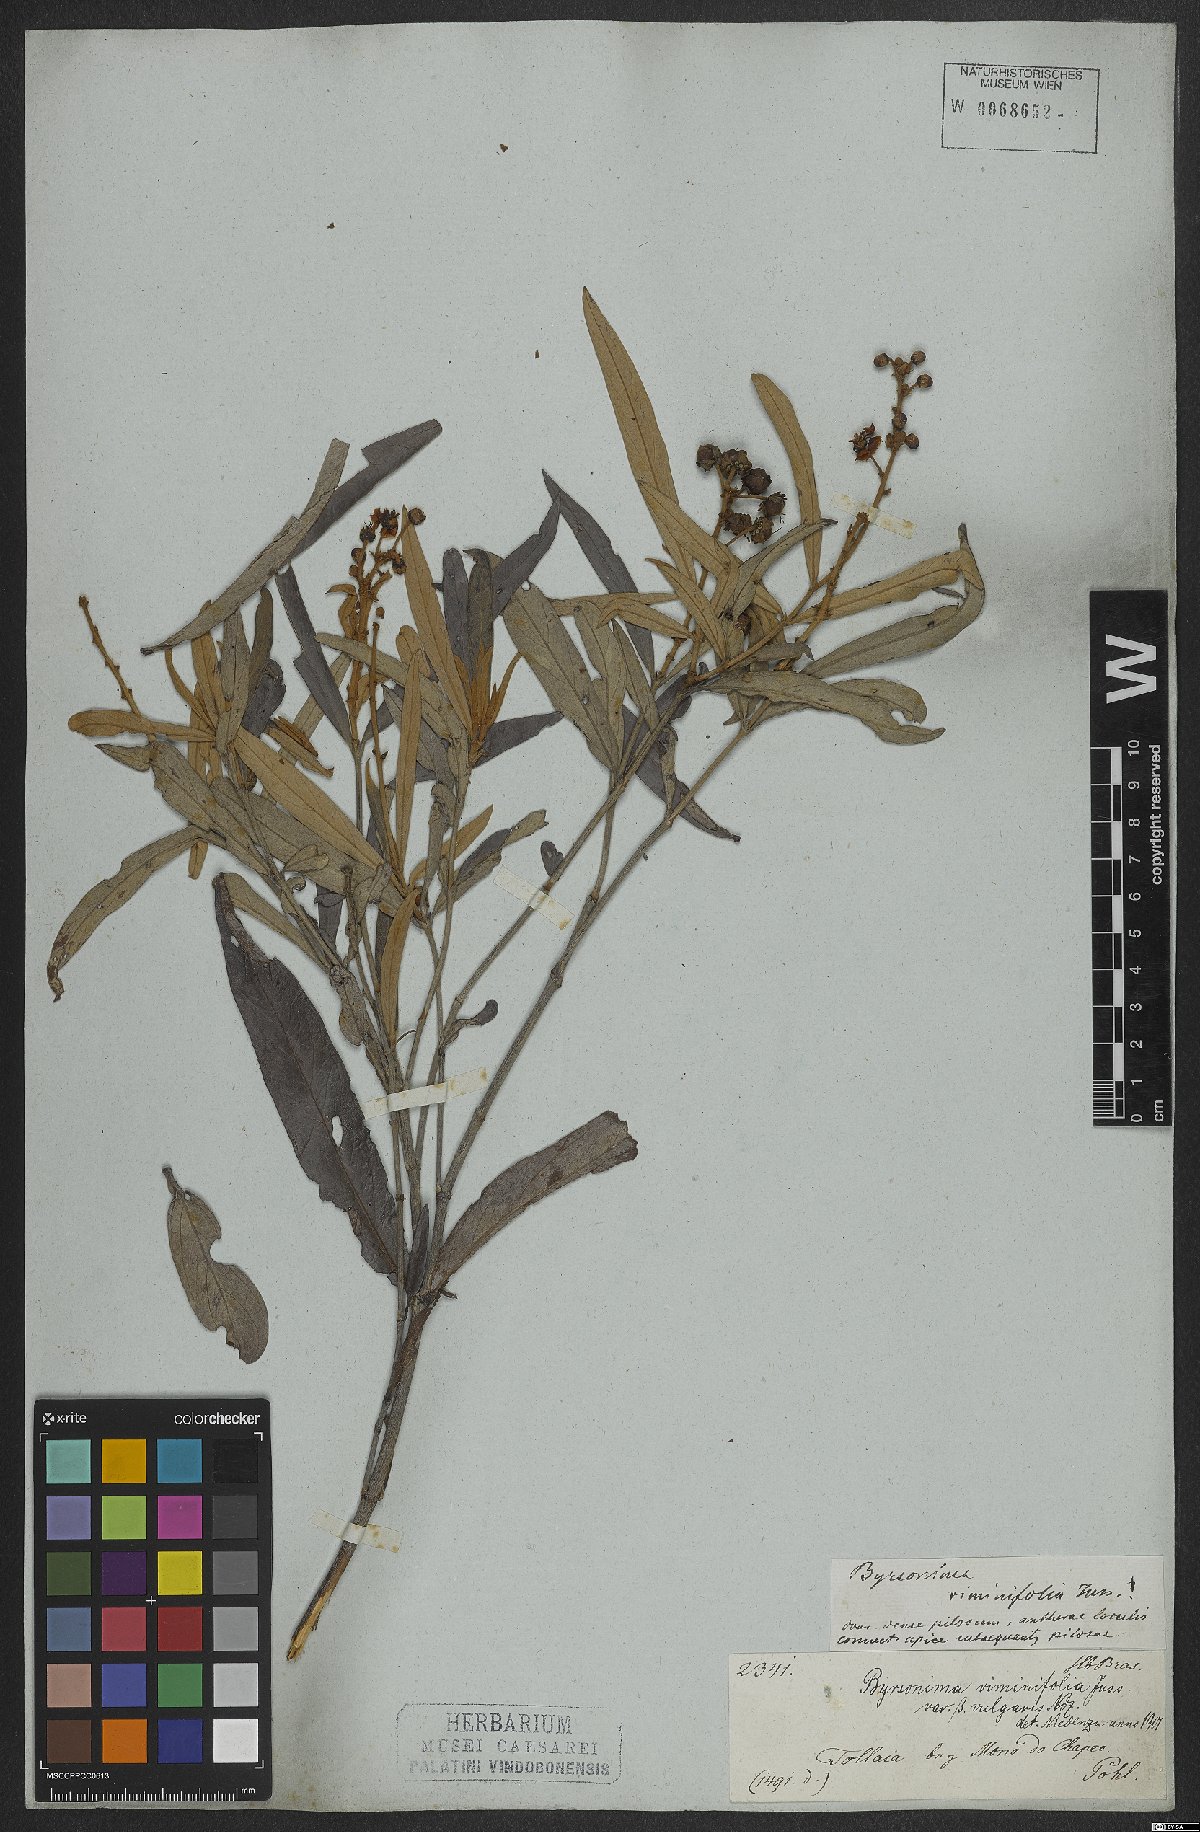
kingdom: Plantae
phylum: Tracheophyta
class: Magnoliopsida
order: Malpighiales
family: Malpighiaceae
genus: Byrsonima
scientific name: Byrsonima viminifolia
